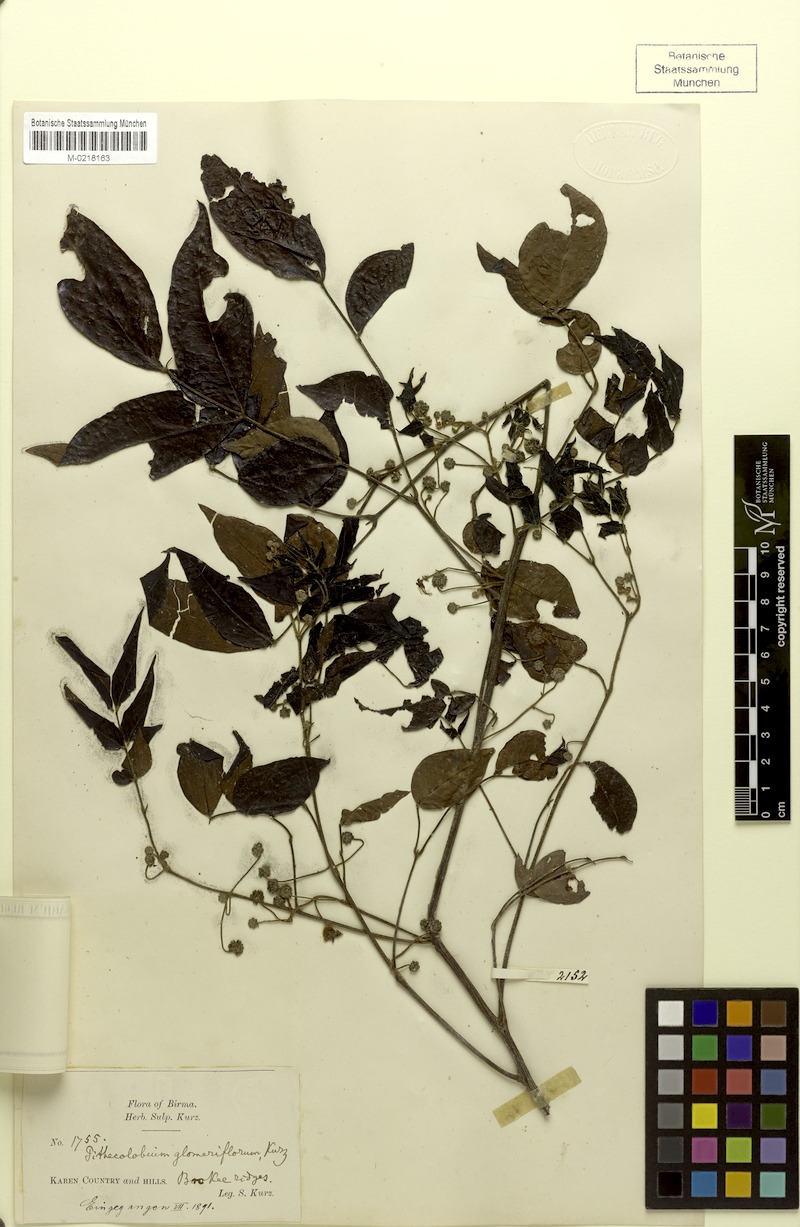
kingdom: Plantae
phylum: Tracheophyta
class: Magnoliopsida
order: Fabales
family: Fabaceae
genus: Archidendron
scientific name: Archidendron glomeriflorum
